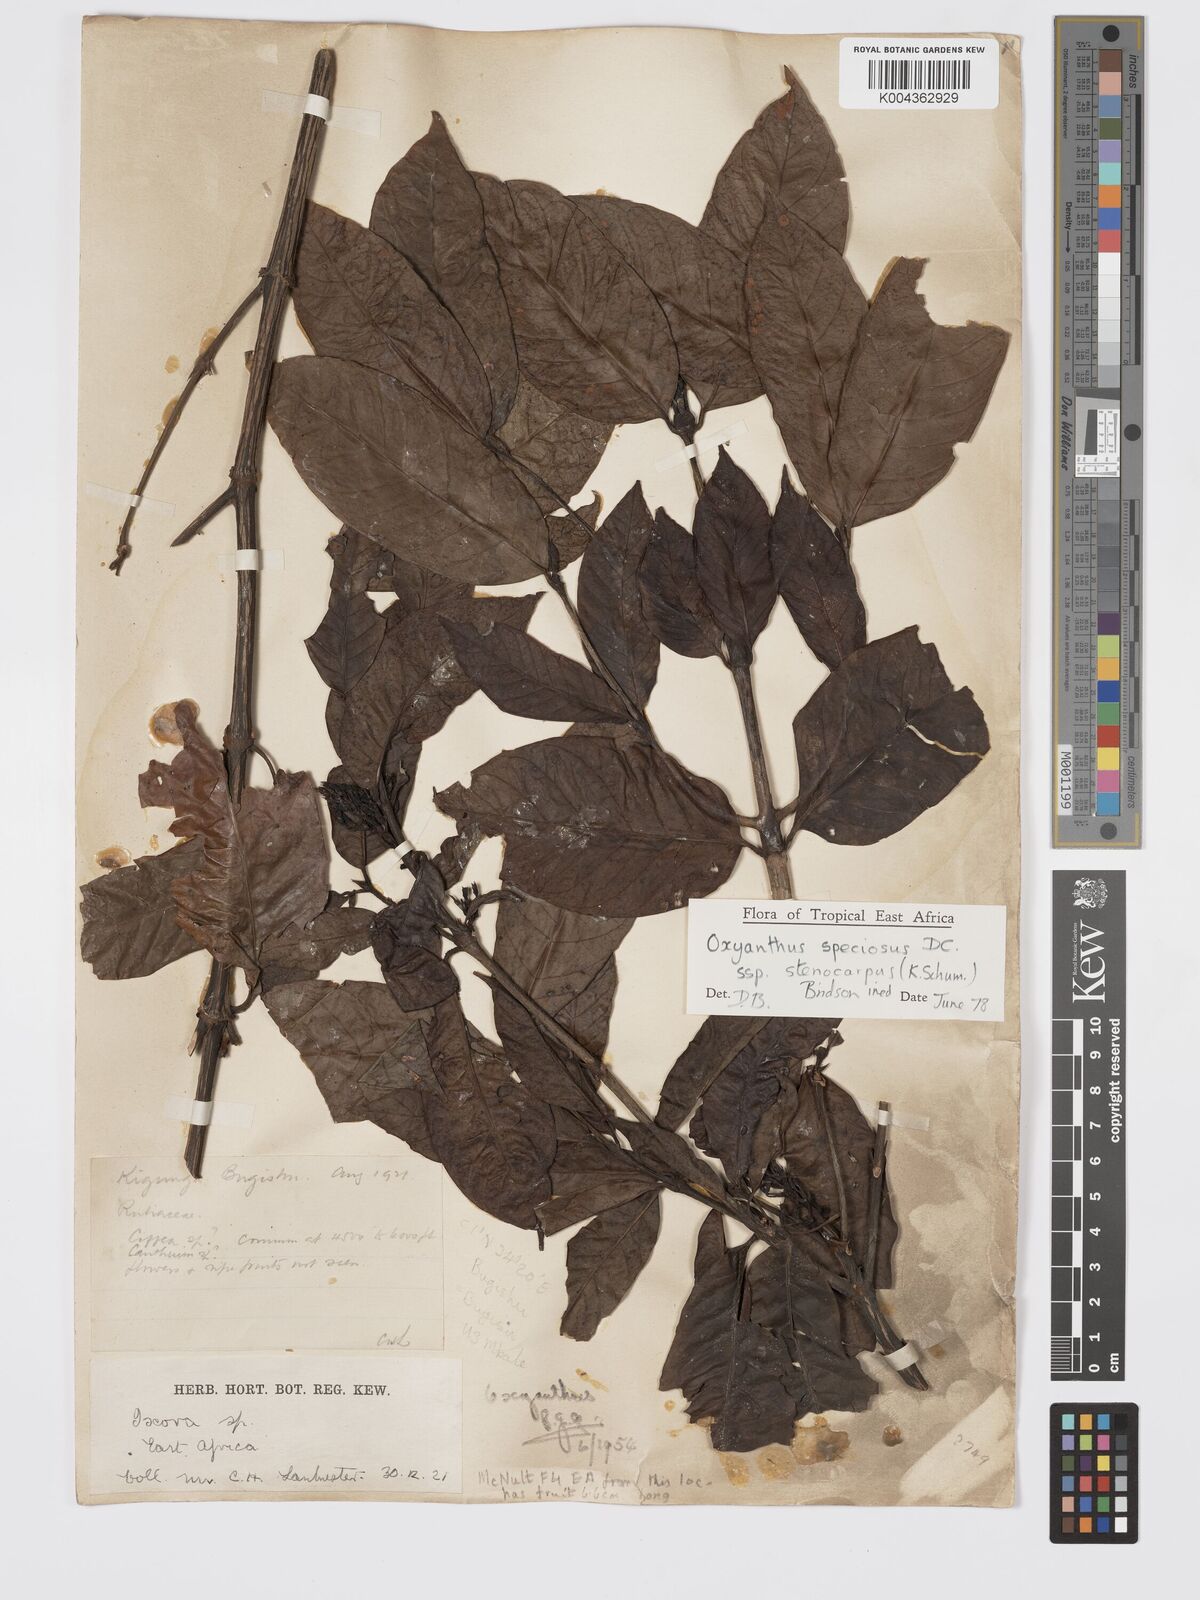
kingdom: Plantae
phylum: Tracheophyta
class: Magnoliopsida
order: Gentianales
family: Rubiaceae
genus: Oxyanthus
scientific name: Oxyanthus
